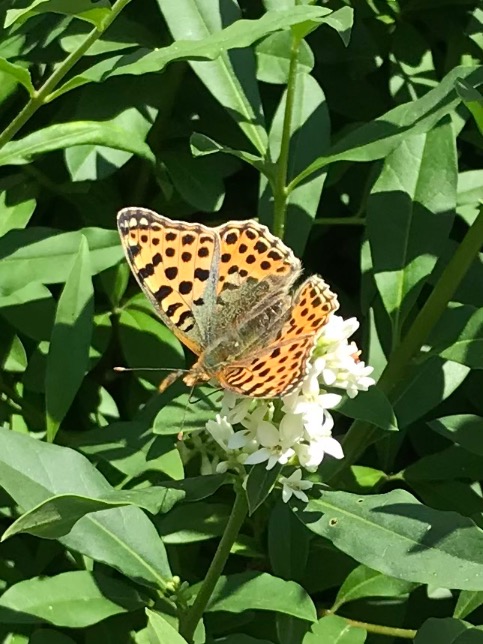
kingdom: Animalia
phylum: Arthropoda
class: Insecta
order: Lepidoptera
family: Nymphalidae
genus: Issoria
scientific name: Issoria lathonia
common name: Storplettet perlemorsommerfugl
